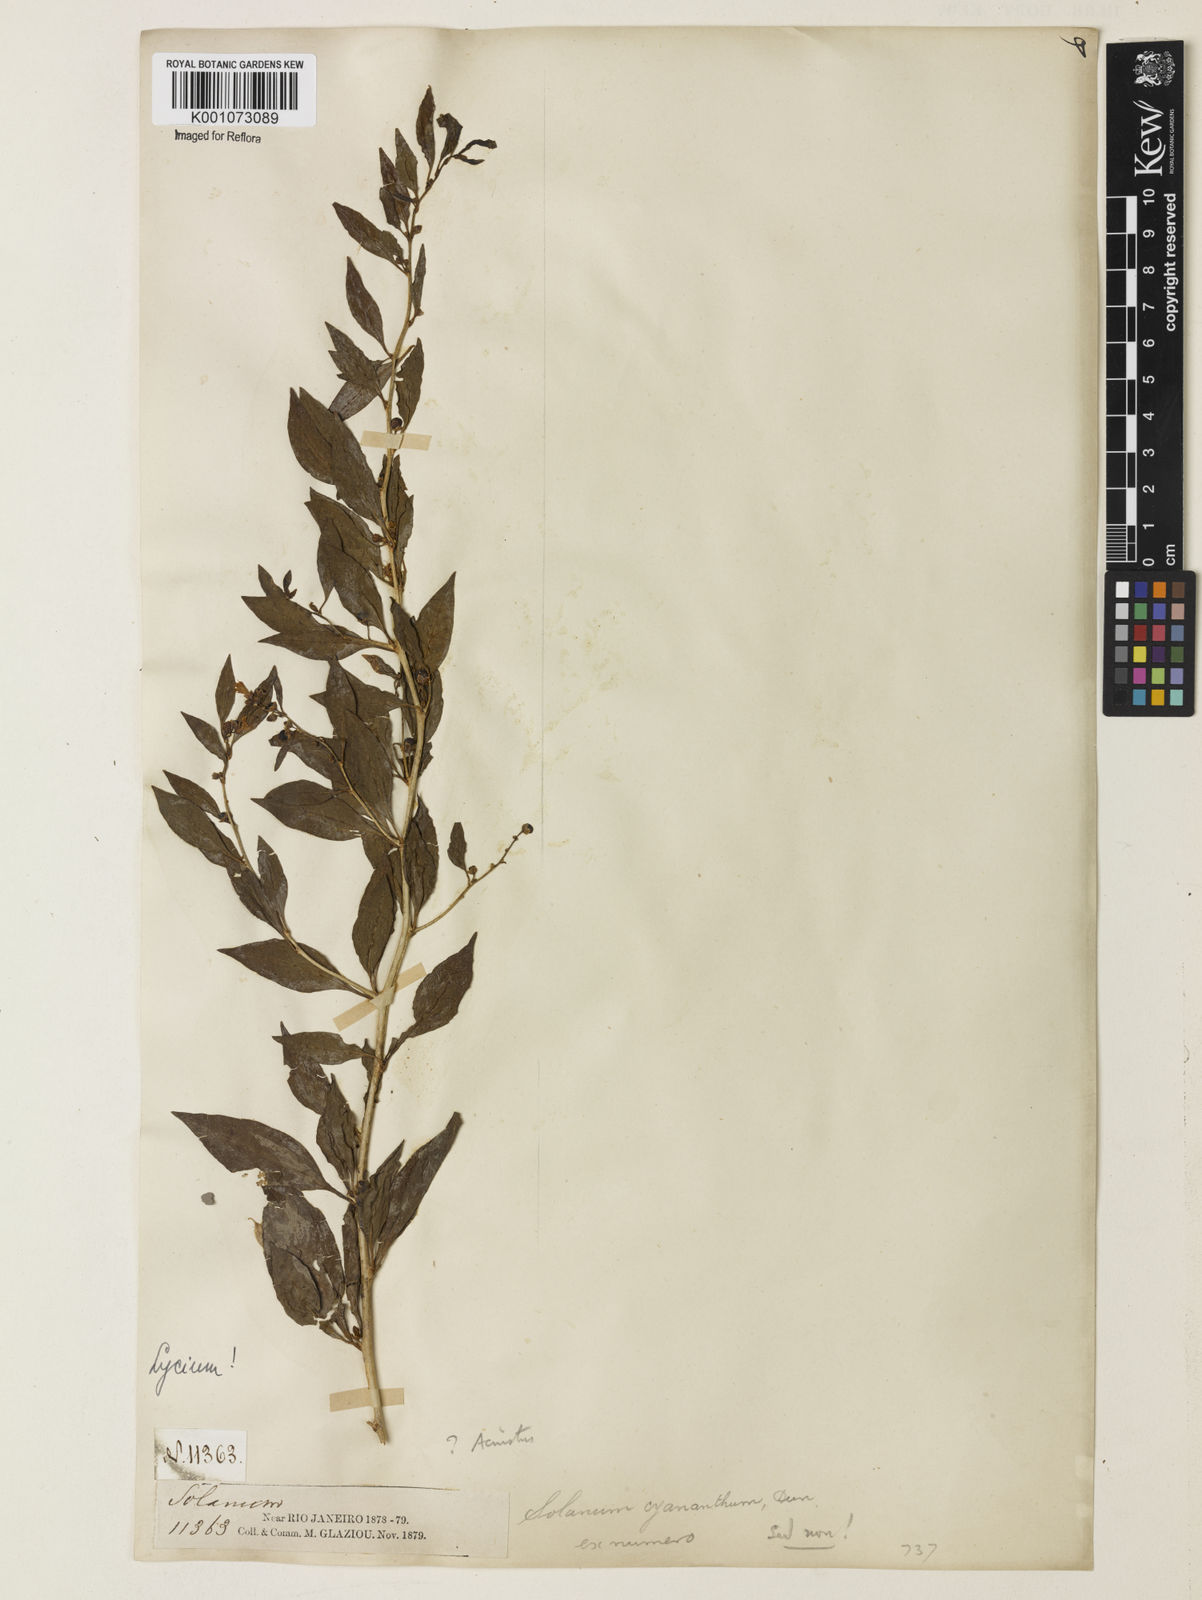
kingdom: Plantae
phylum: Tracheophyta
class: Magnoliopsida
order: Solanales
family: Solanaceae
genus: Iochroma
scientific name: Iochroma Acnistus spec
